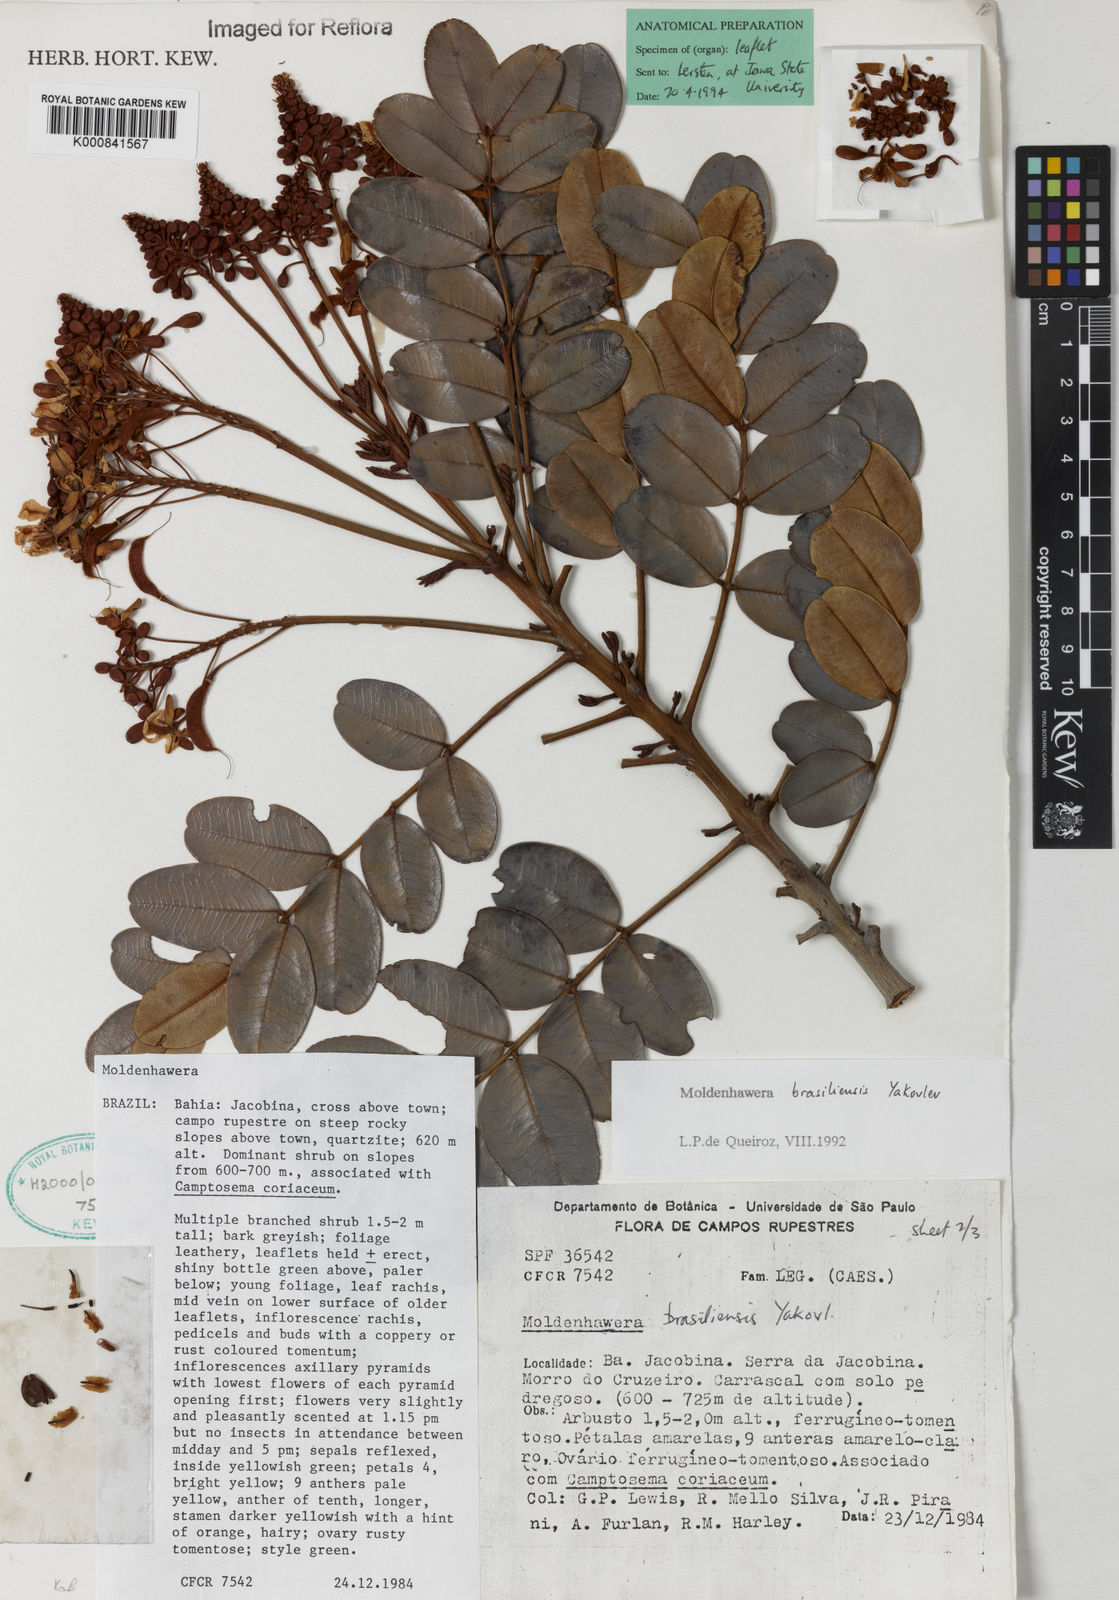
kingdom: Plantae
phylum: Tracheophyta
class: Magnoliopsida
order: Fabales
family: Fabaceae
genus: Moldenhawera
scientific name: Moldenhawera brasiliensis
